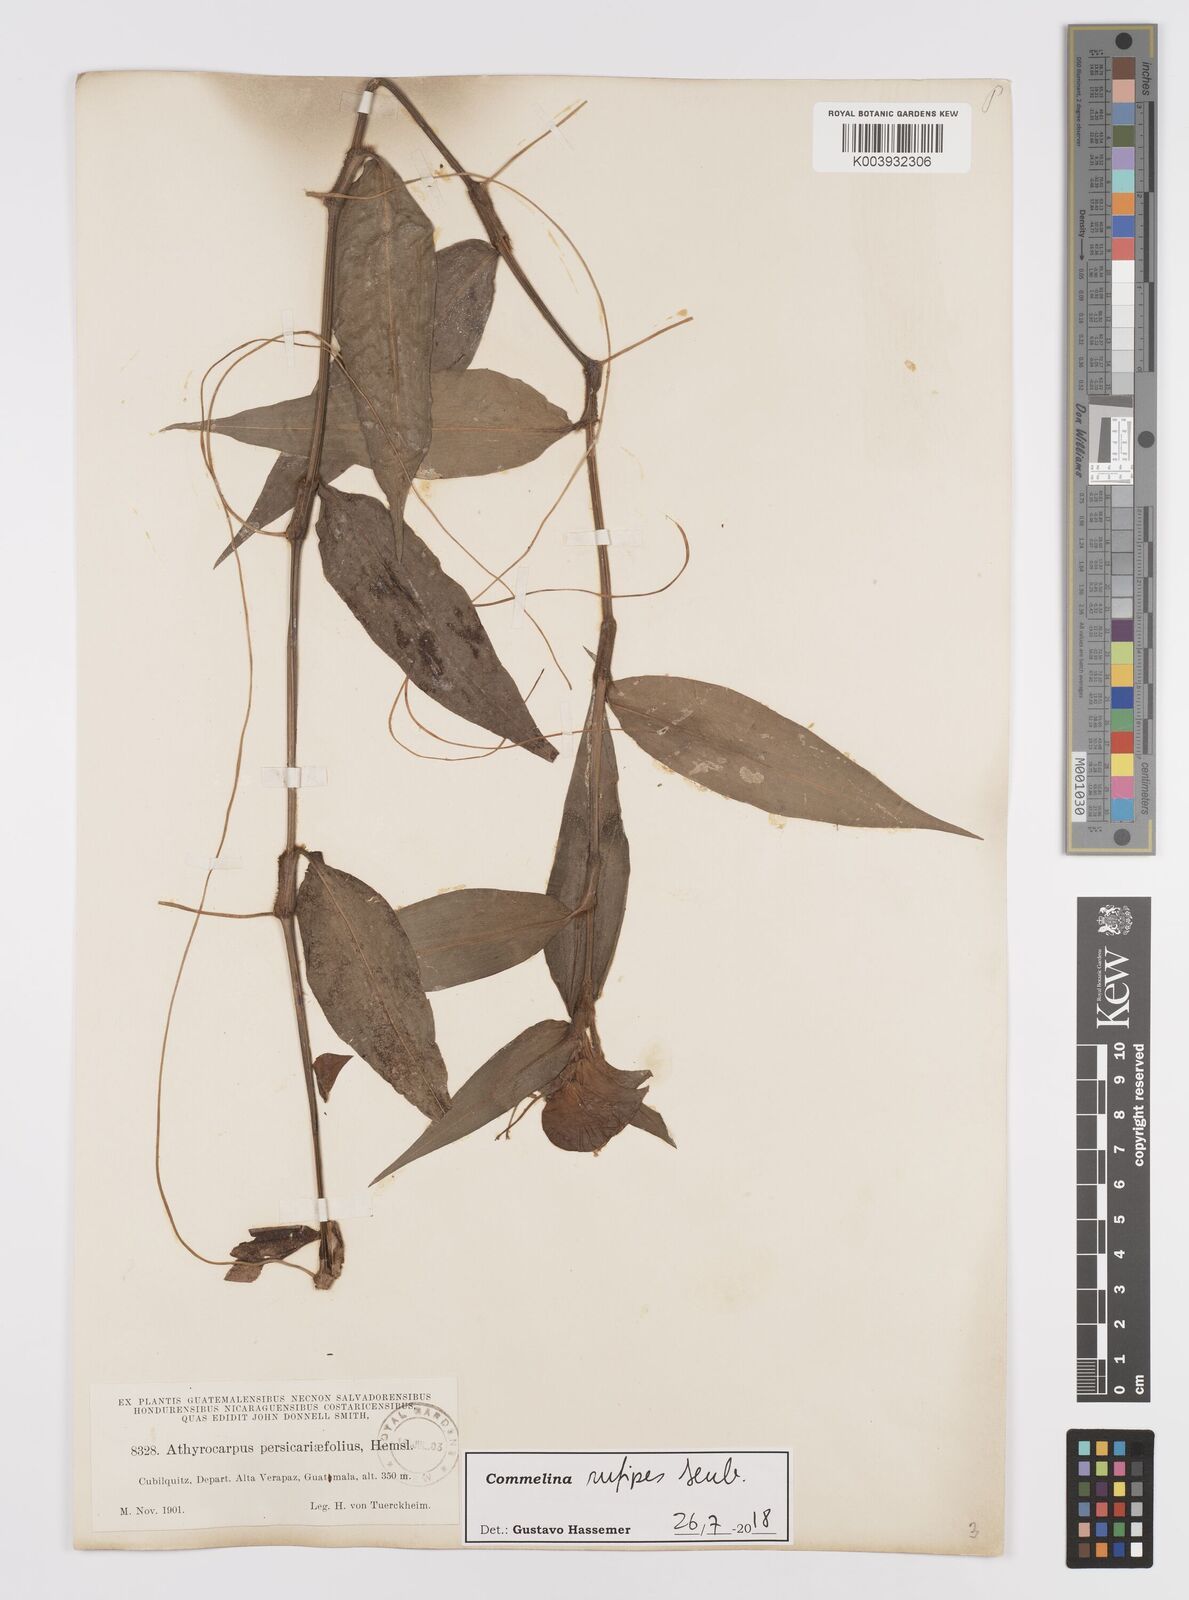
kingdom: Plantae
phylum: Tracheophyta
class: Liliopsida
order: Commelinales
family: Commelinaceae
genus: Commelina
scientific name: Commelina rufipes
